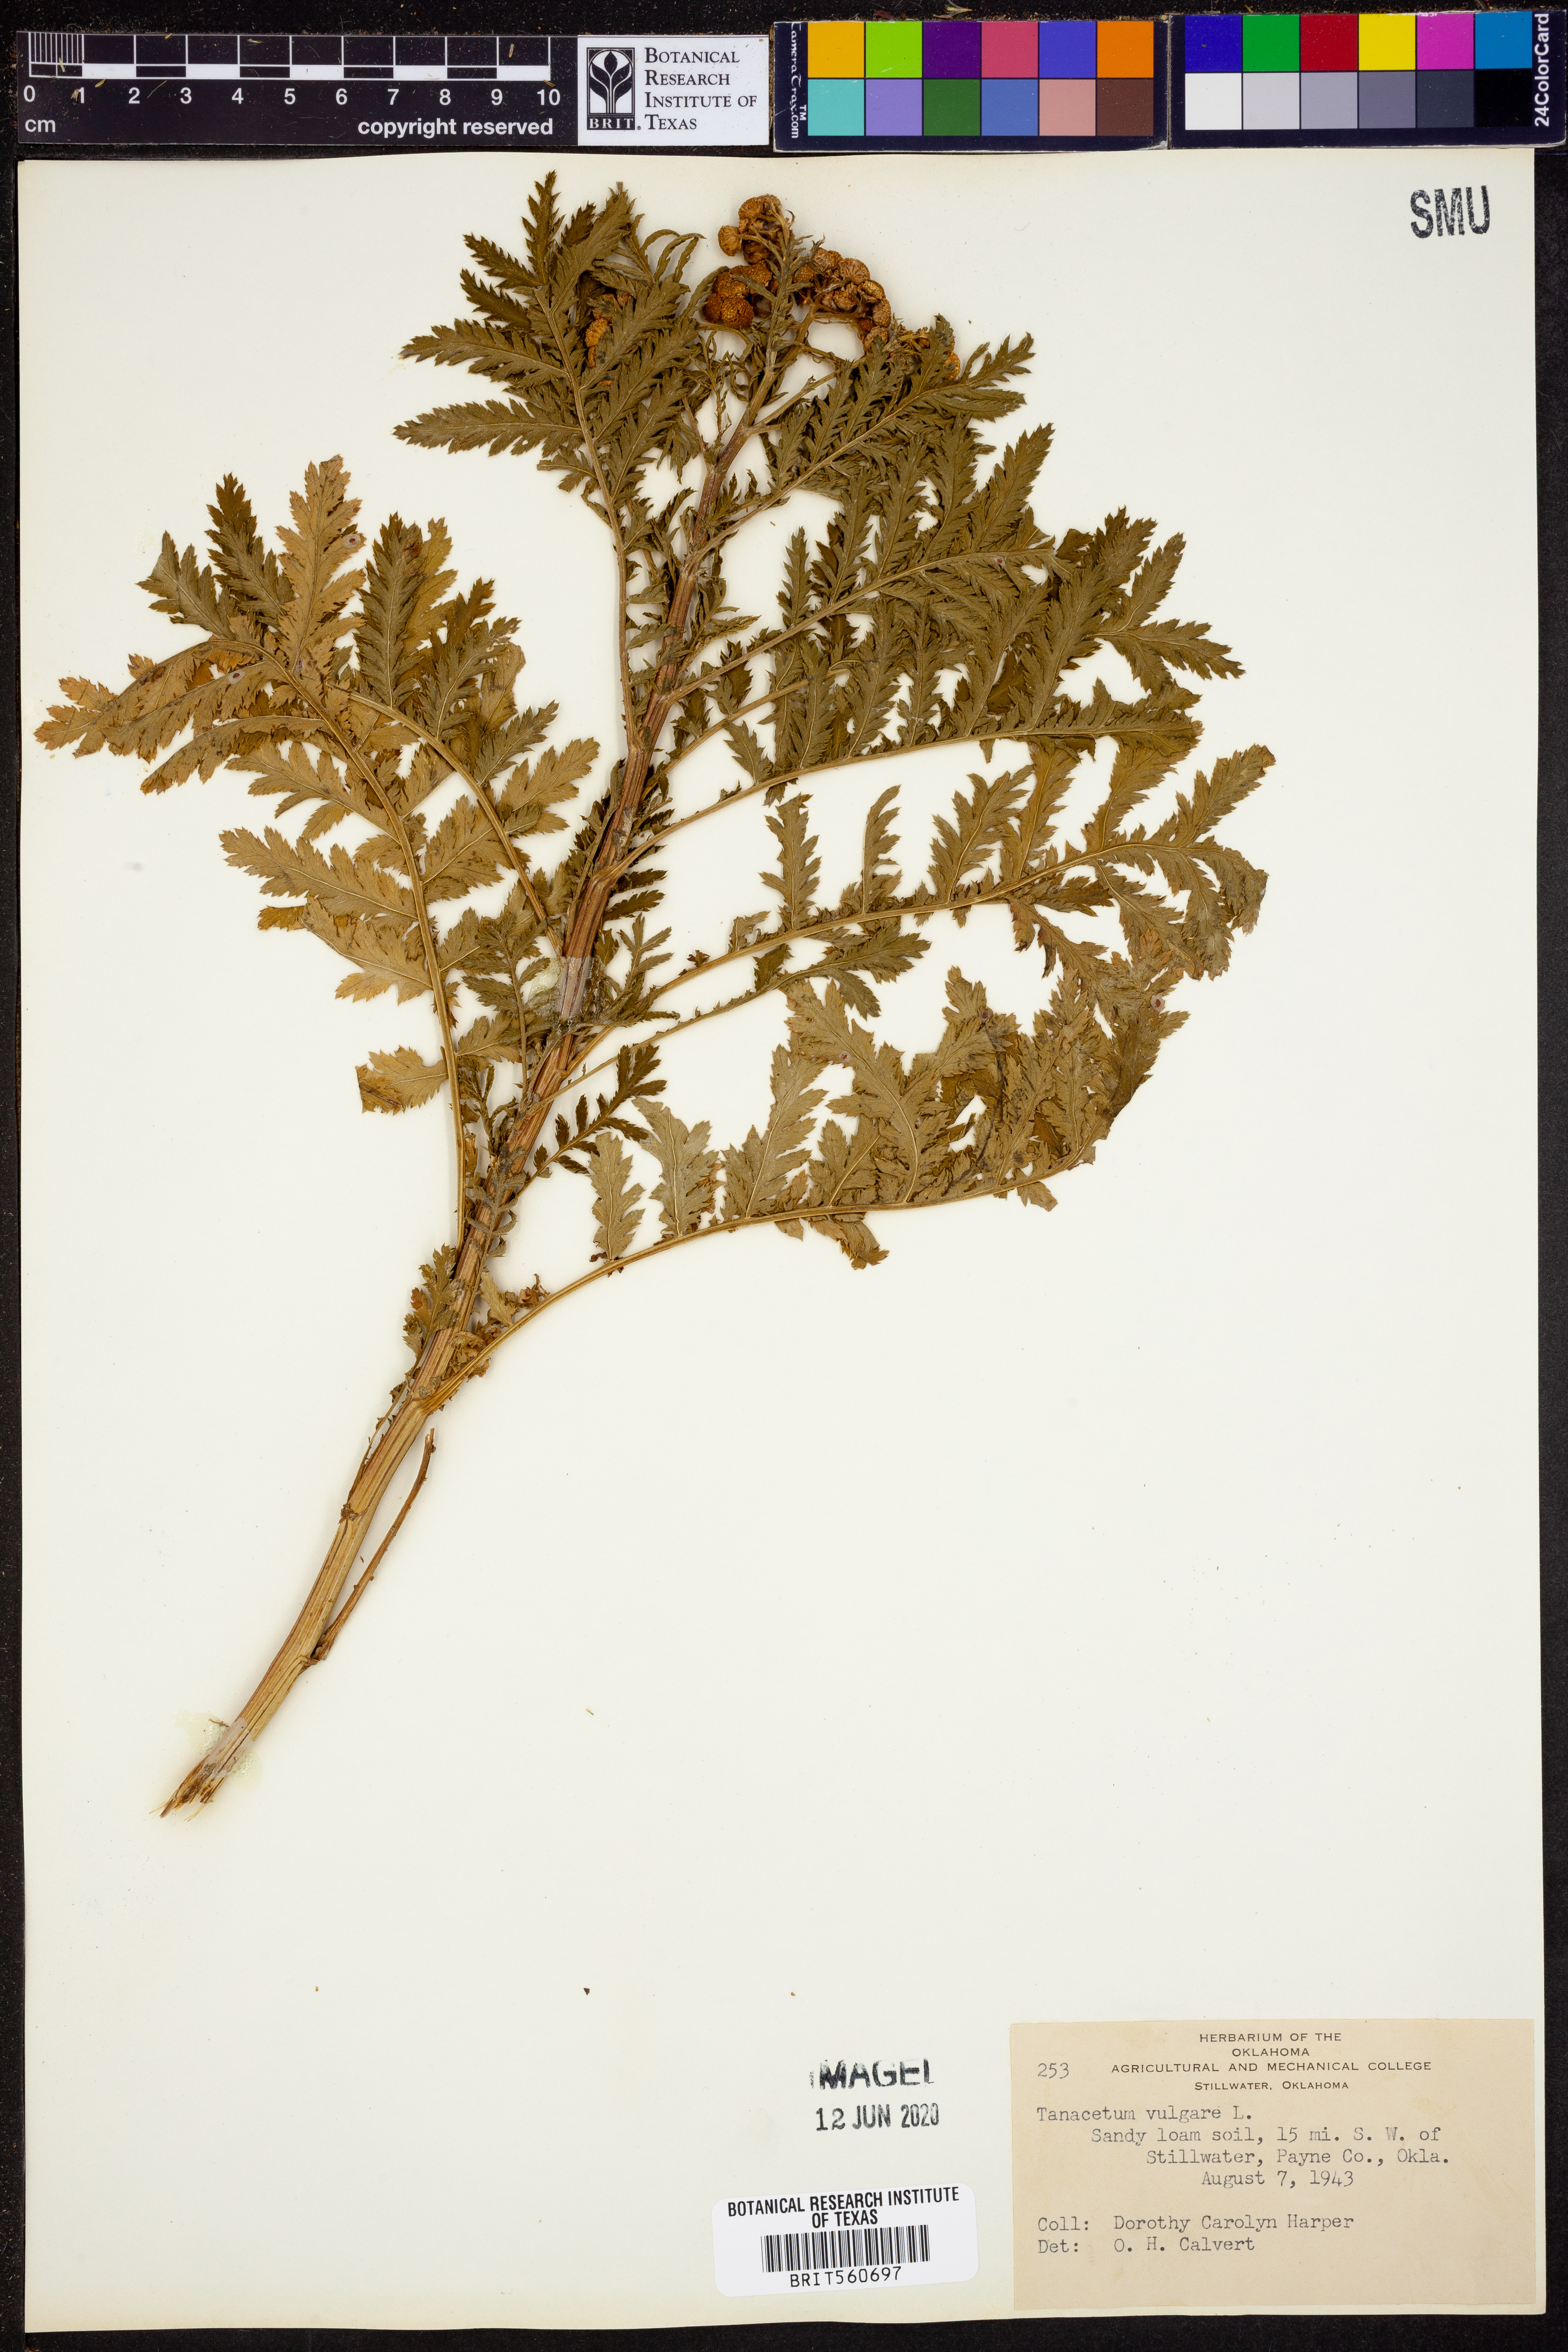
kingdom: Plantae
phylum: Tracheophyta
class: Magnoliopsida
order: Asterales
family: Asteraceae
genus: Tanacetum
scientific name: Tanacetum vulgare
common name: Common tansy
